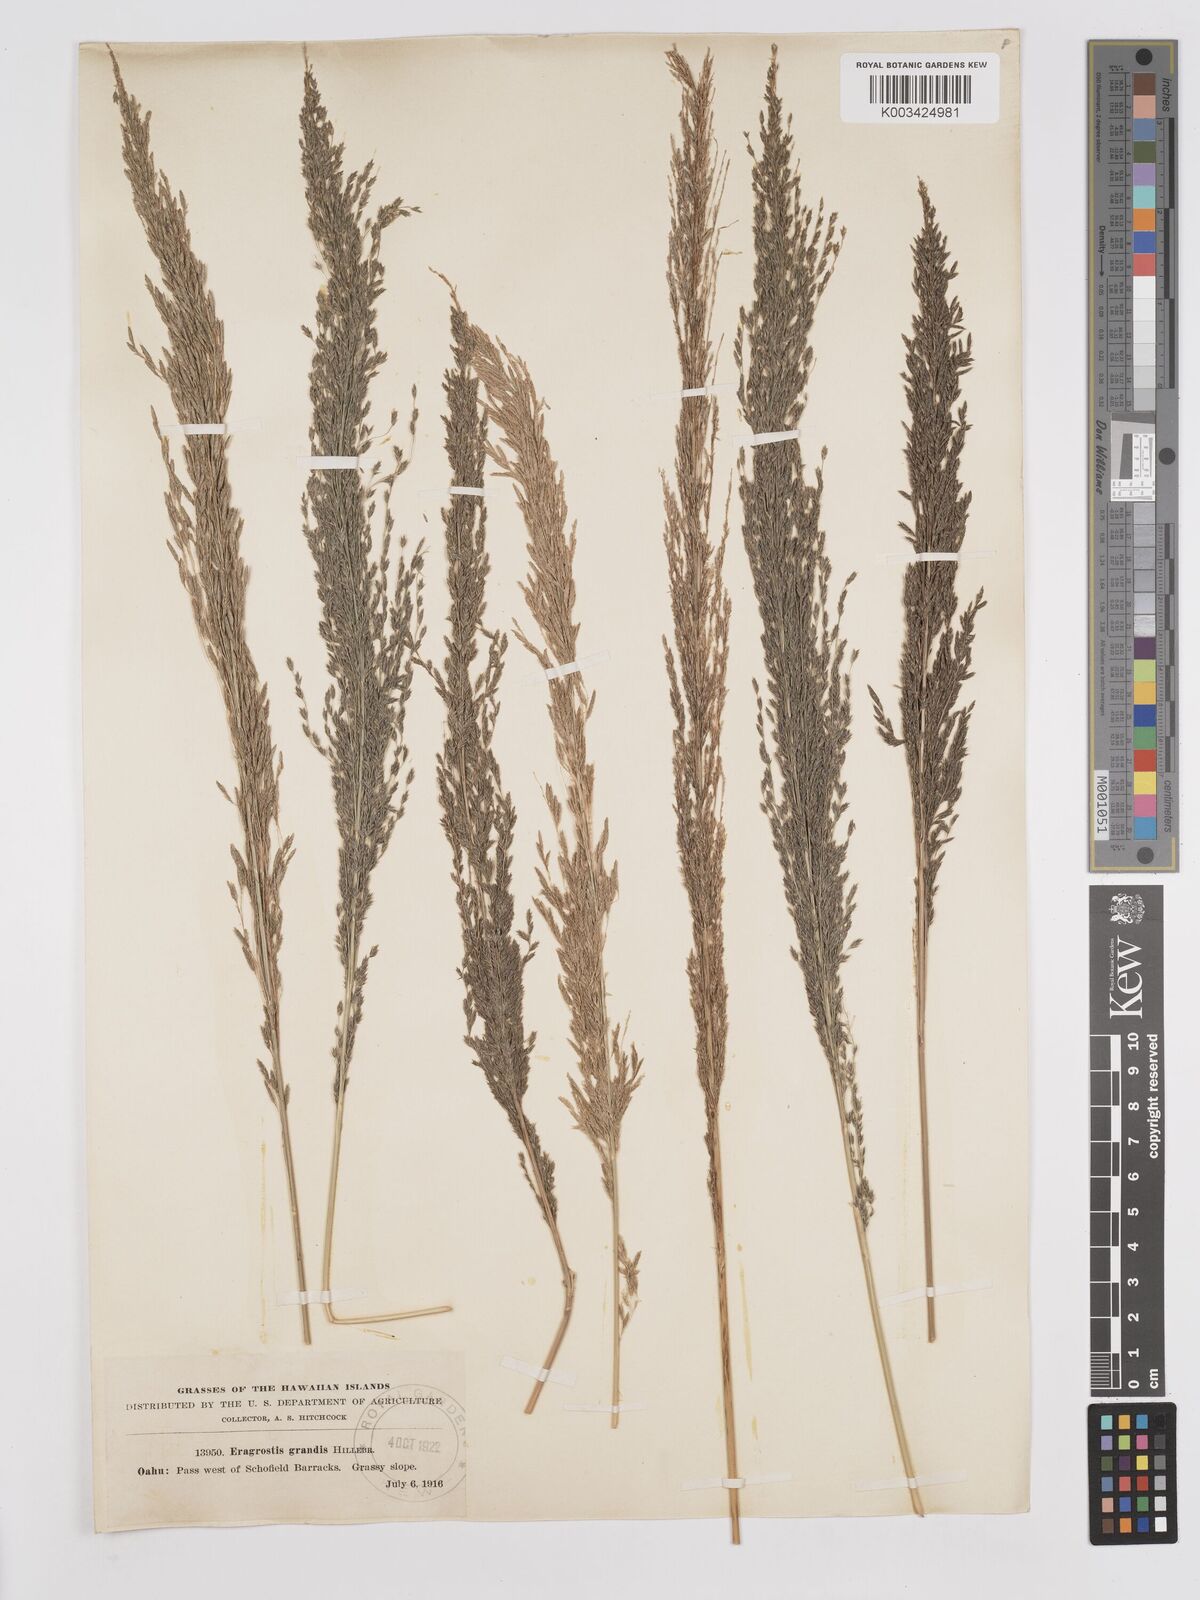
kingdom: Plantae
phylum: Tracheophyta
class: Liliopsida
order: Poales
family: Poaceae
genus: Eragrostis
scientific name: Eragrostis grandis
